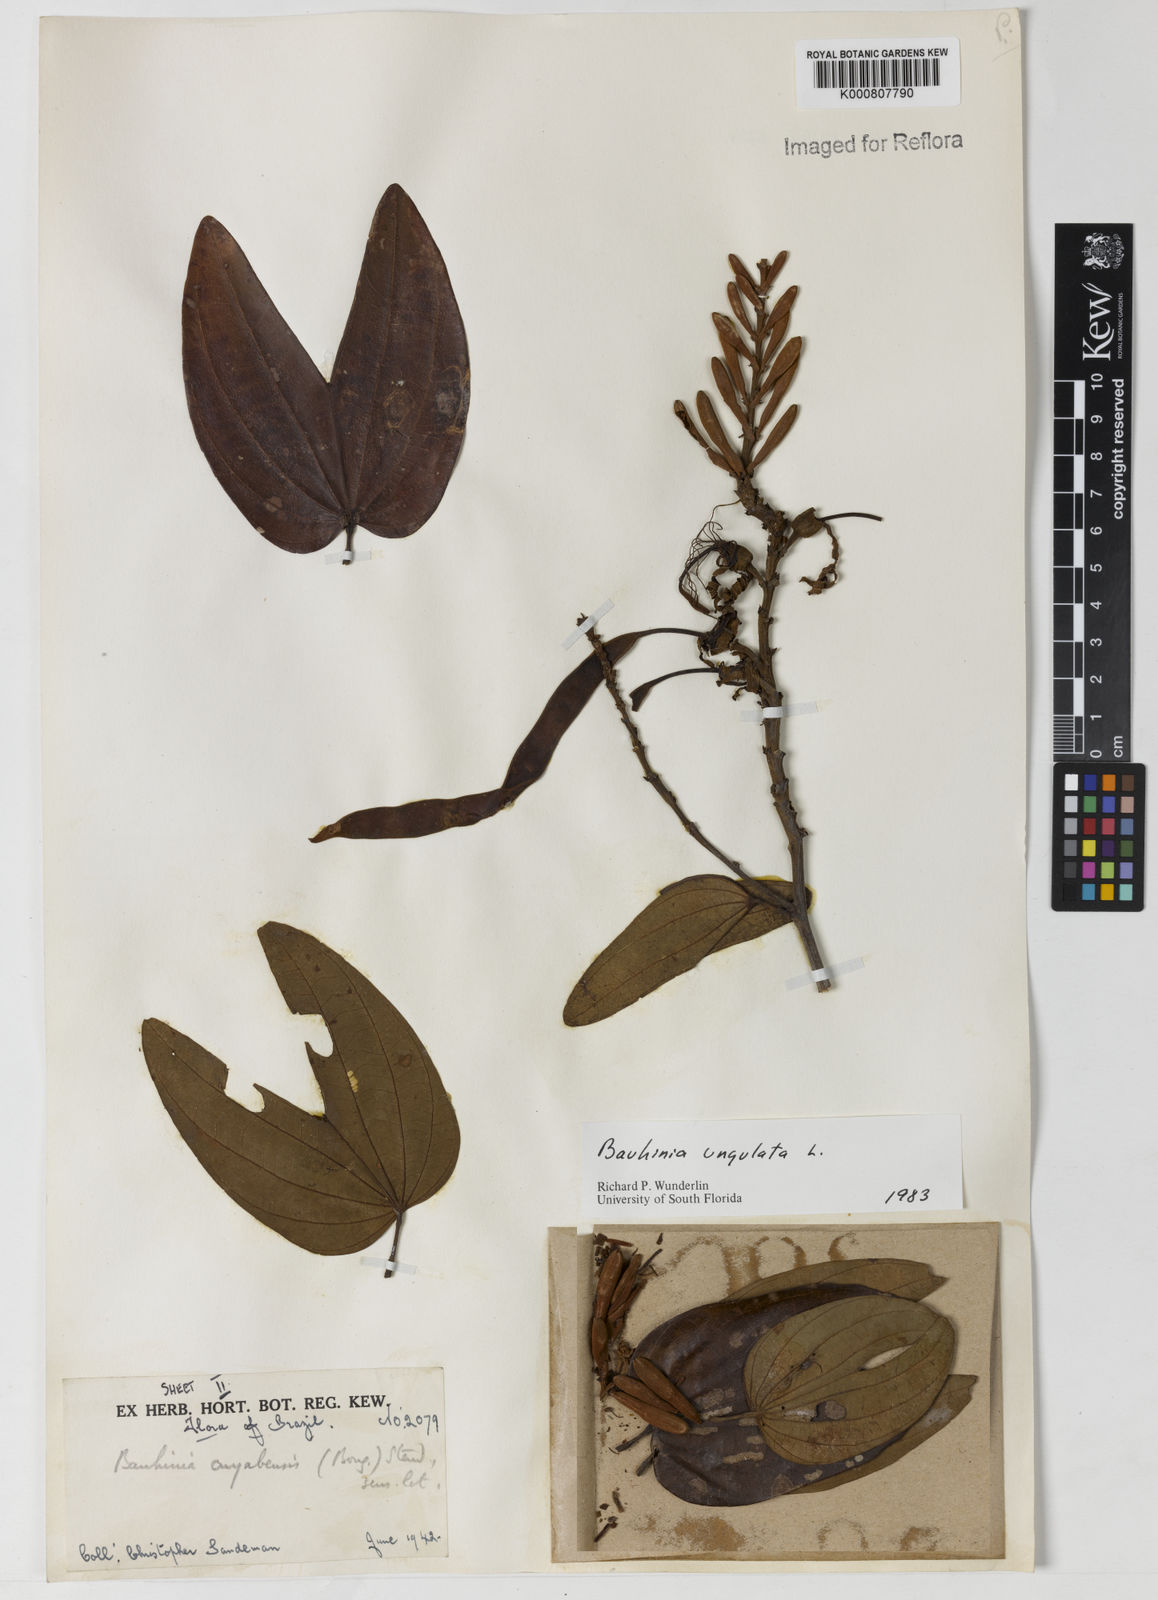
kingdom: Plantae
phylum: Tracheophyta
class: Magnoliopsida
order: Fabales
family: Fabaceae
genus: Bauhinia
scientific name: Bauhinia ungulata
